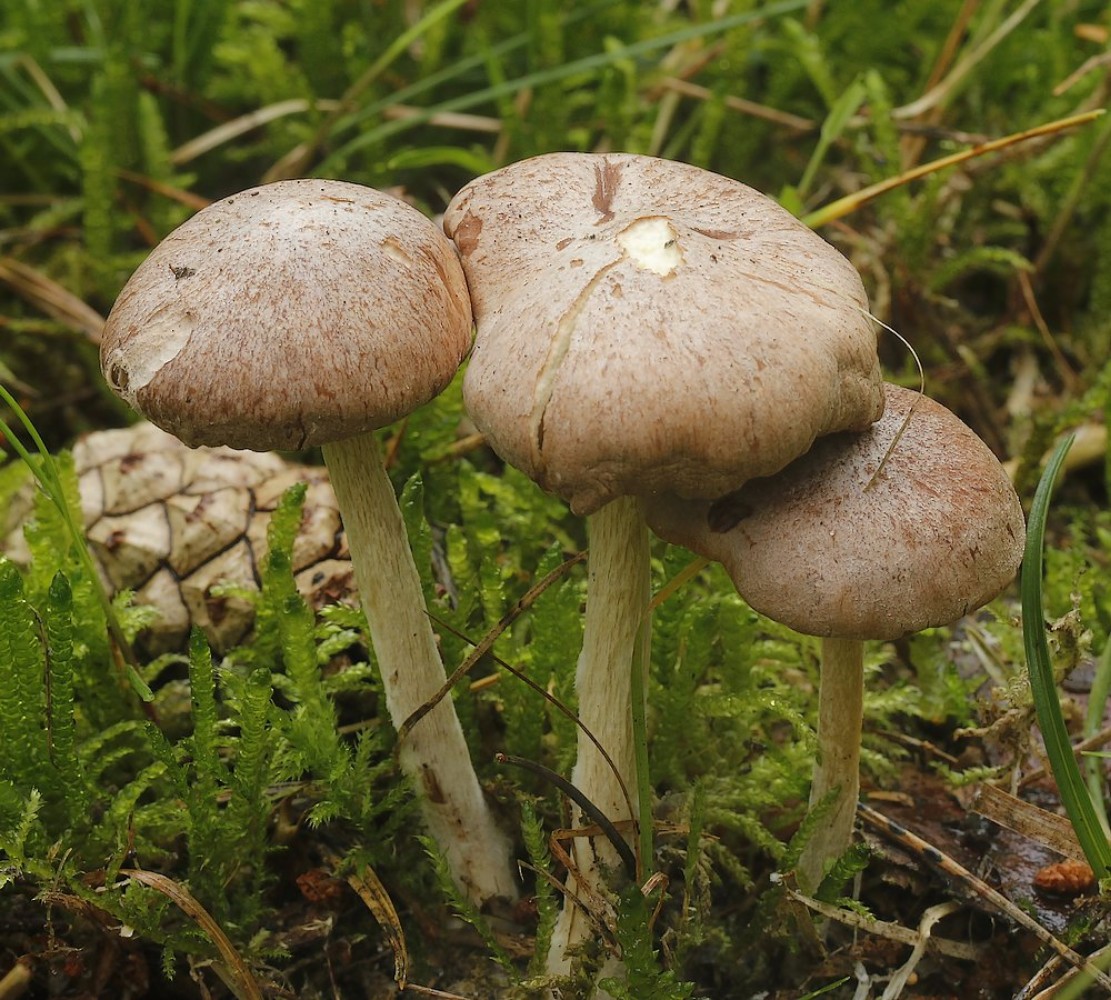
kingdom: Fungi
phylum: Basidiomycota
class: Agaricomycetes
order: Agaricales
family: Omphalotaceae
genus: Collybiopsis
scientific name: Collybiopsis peronata
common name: bestøvlet fladhat
